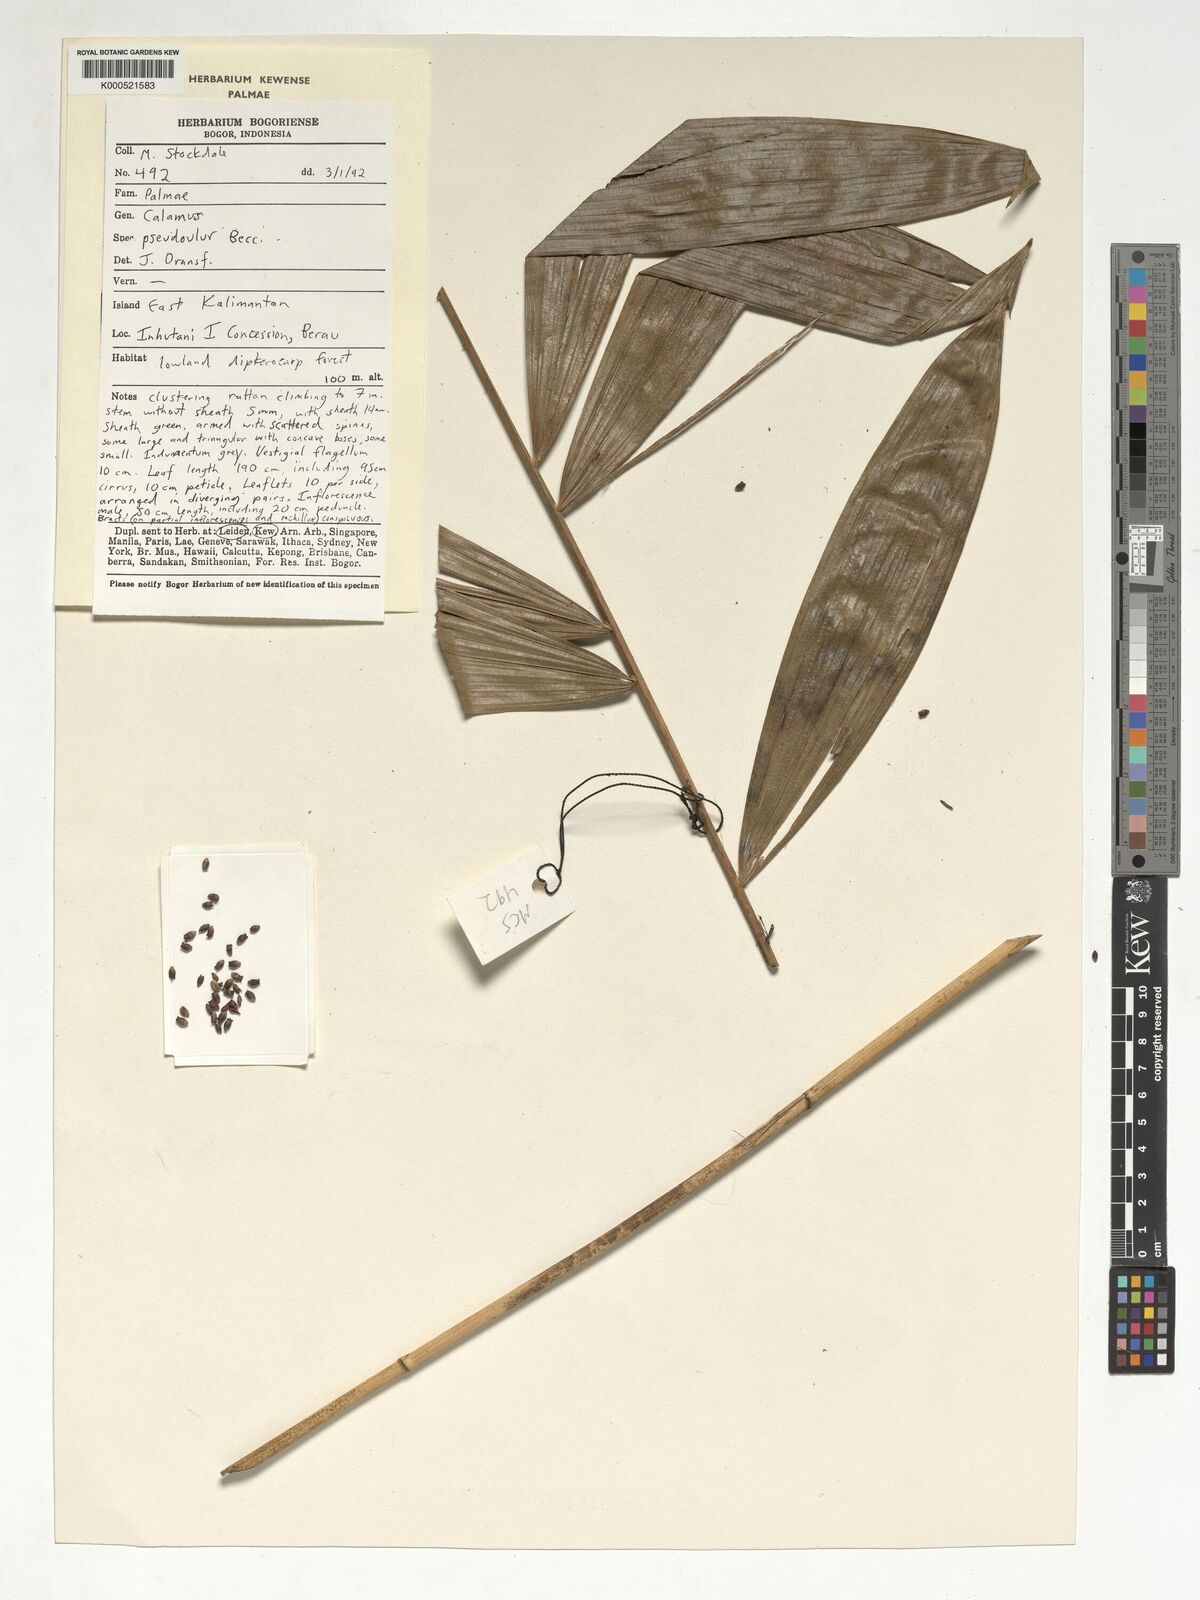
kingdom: Plantae
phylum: Tracheophyta
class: Liliopsida
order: Arecales
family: Arecaceae
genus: Calamus
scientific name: Calamus erioacanthus
